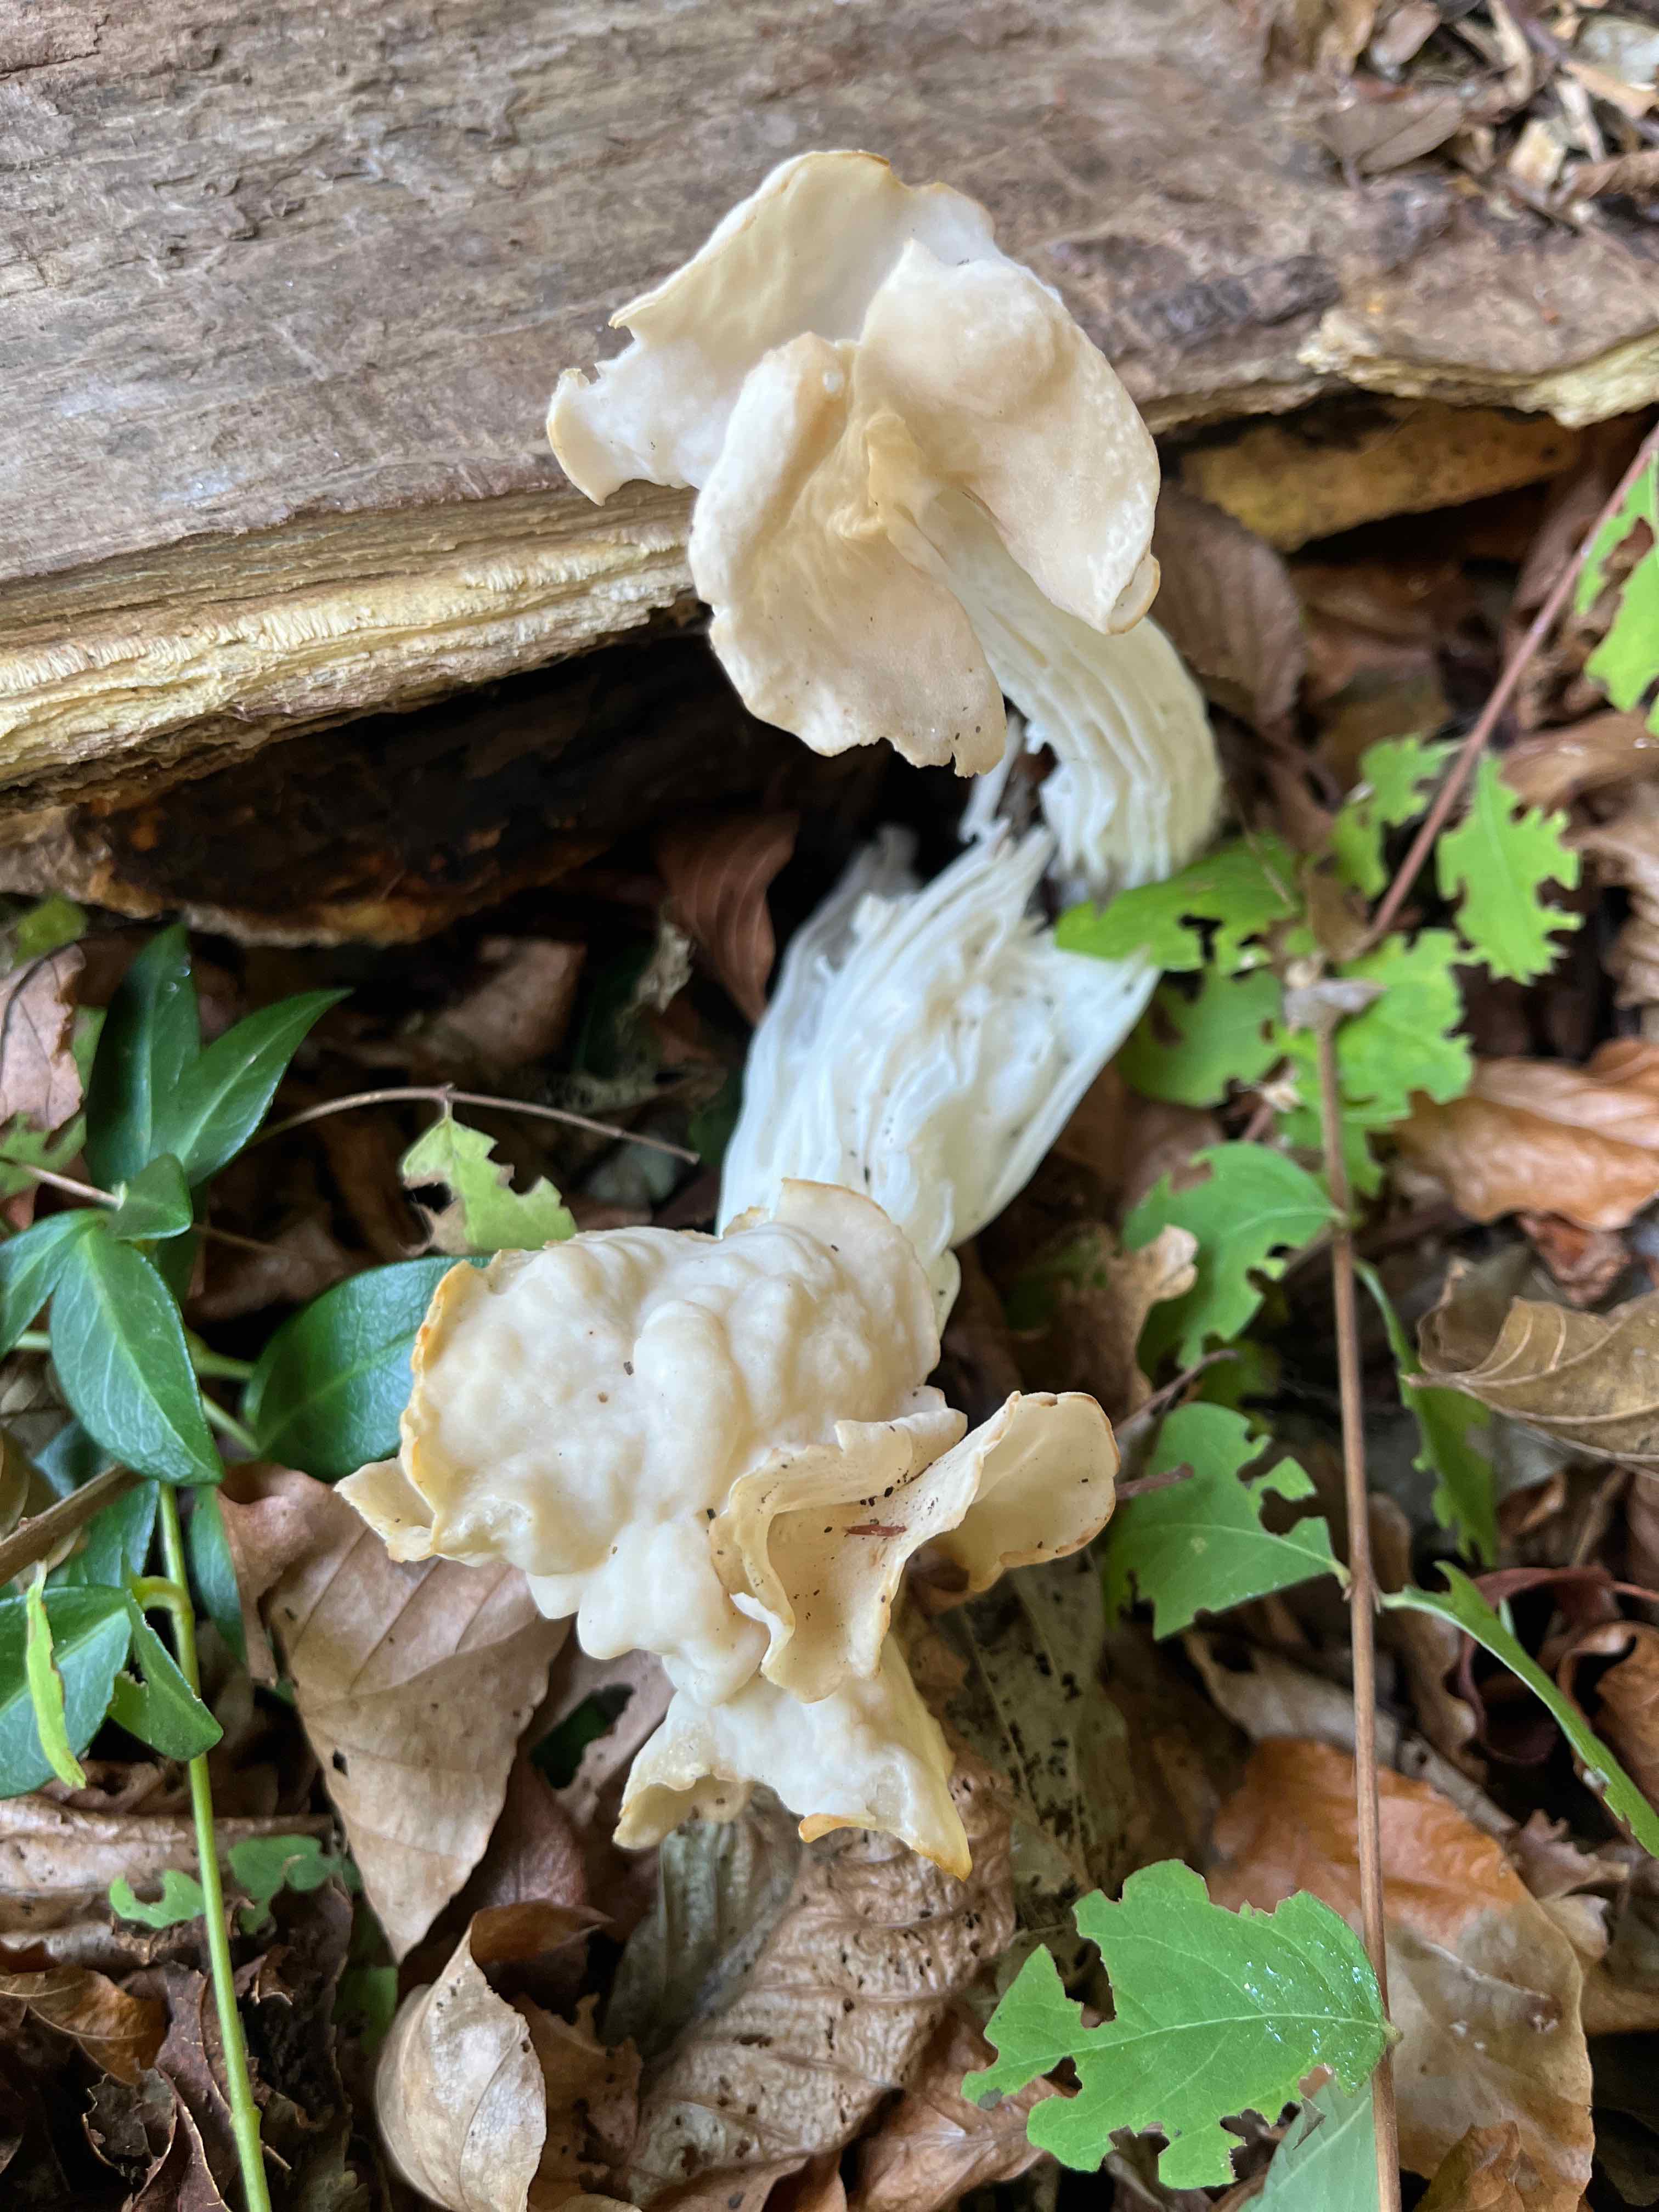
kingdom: Fungi
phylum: Ascomycota
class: Pezizomycetes
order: Pezizales
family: Helvellaceae
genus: Helvella
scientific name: Helvella crispa
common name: kruset foldhat
